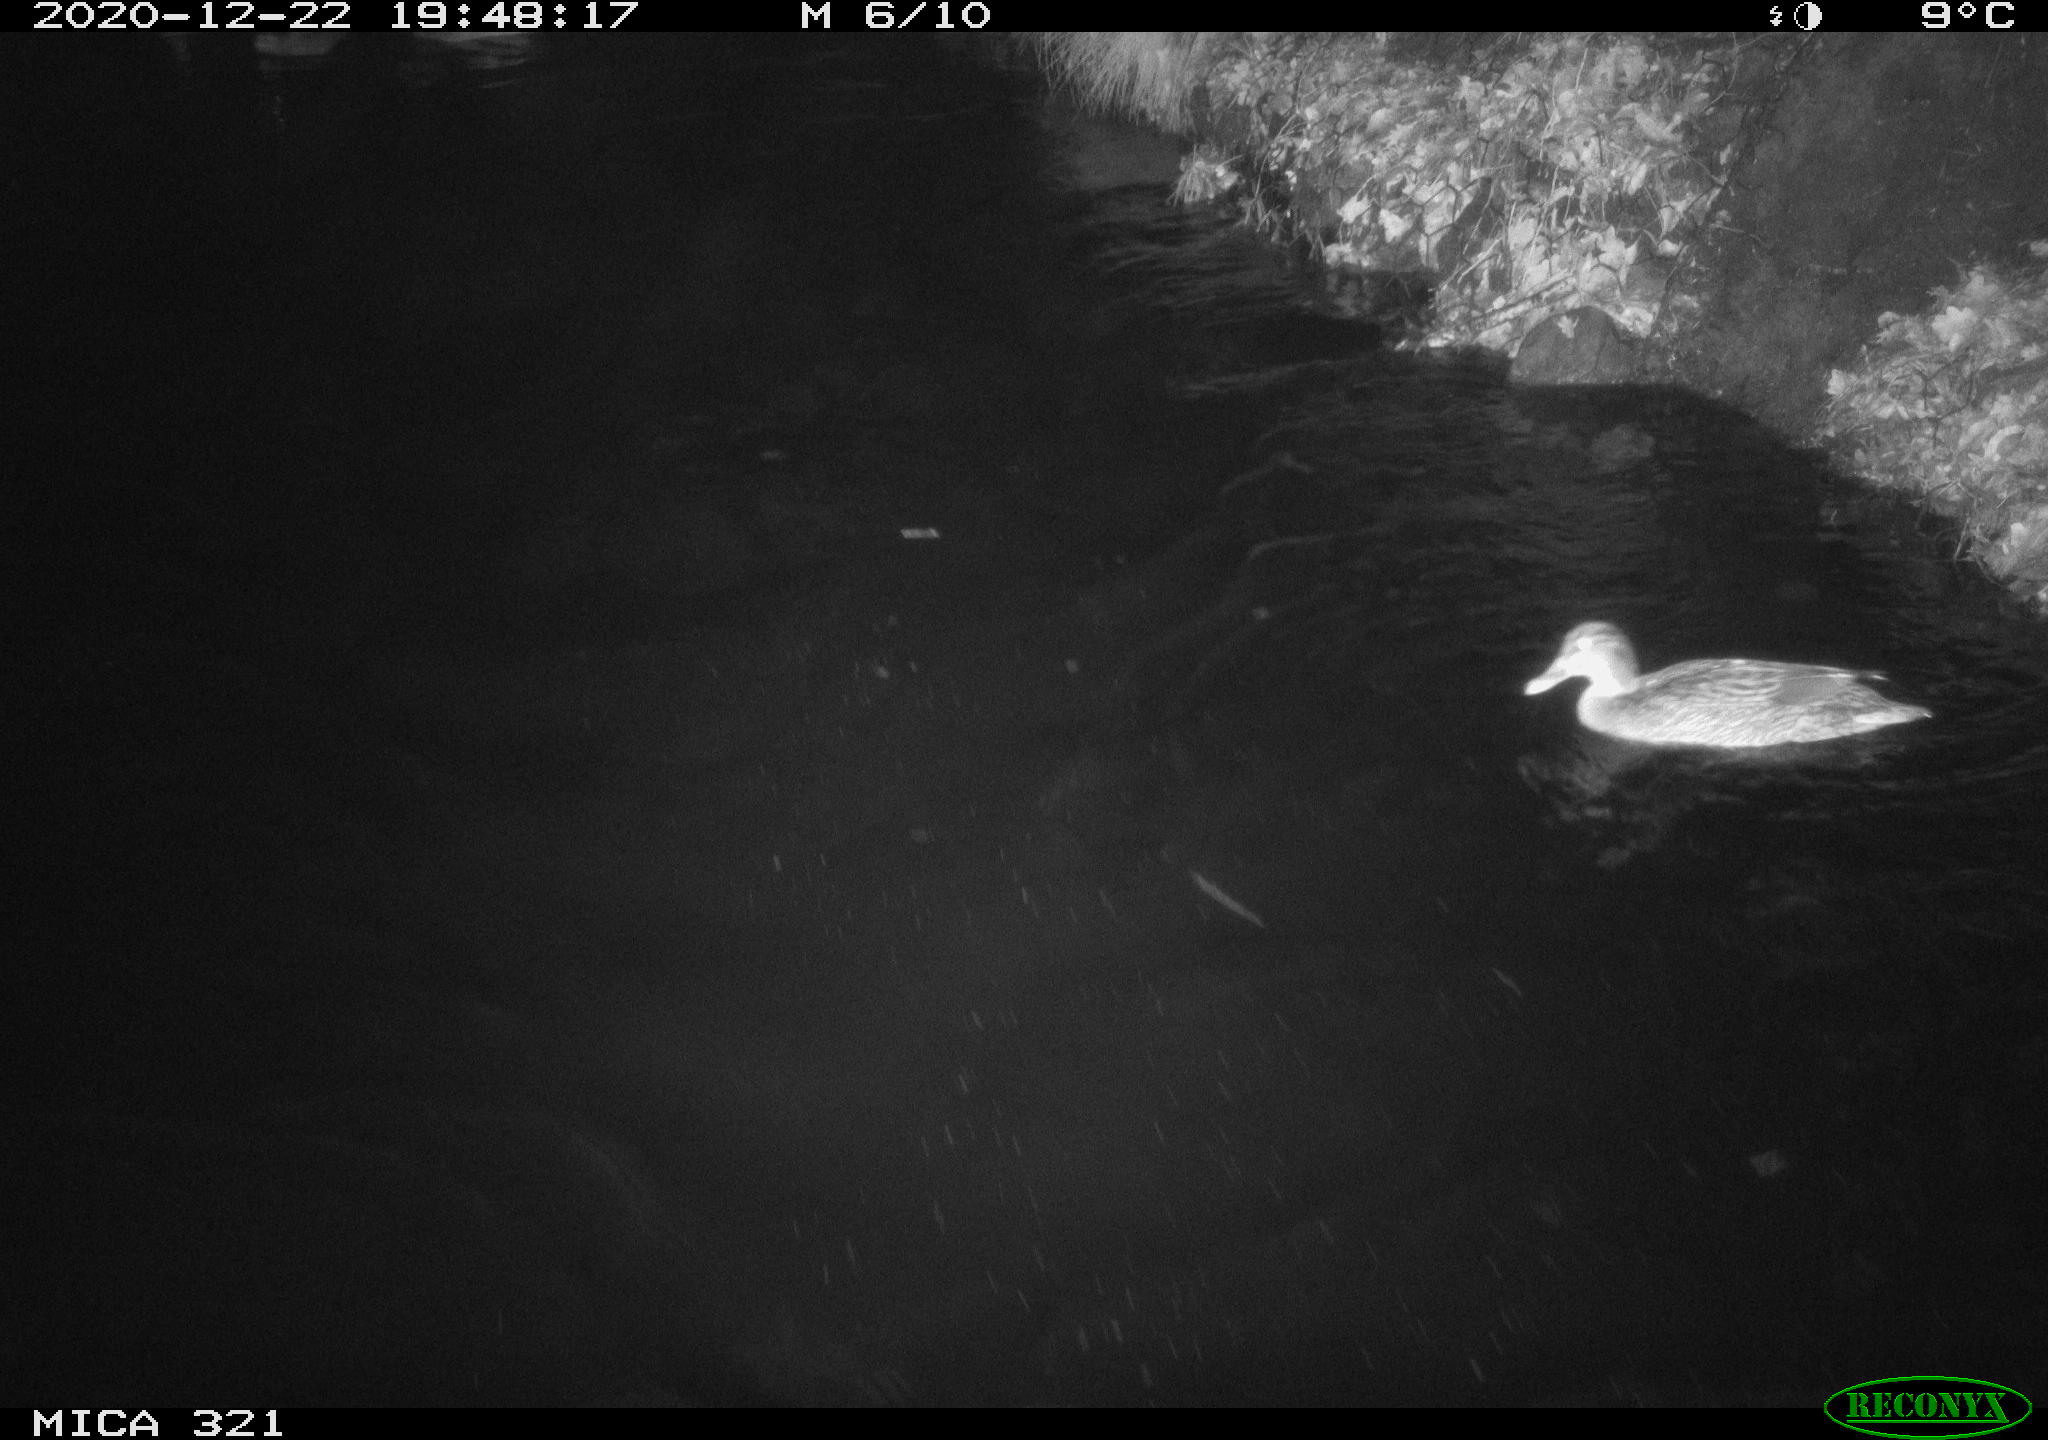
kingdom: Animalia
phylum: Chordata
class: Aves
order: Anseriformes
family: Anatidae
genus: Anas
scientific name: Anas platyrhynchos
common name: Mallard
